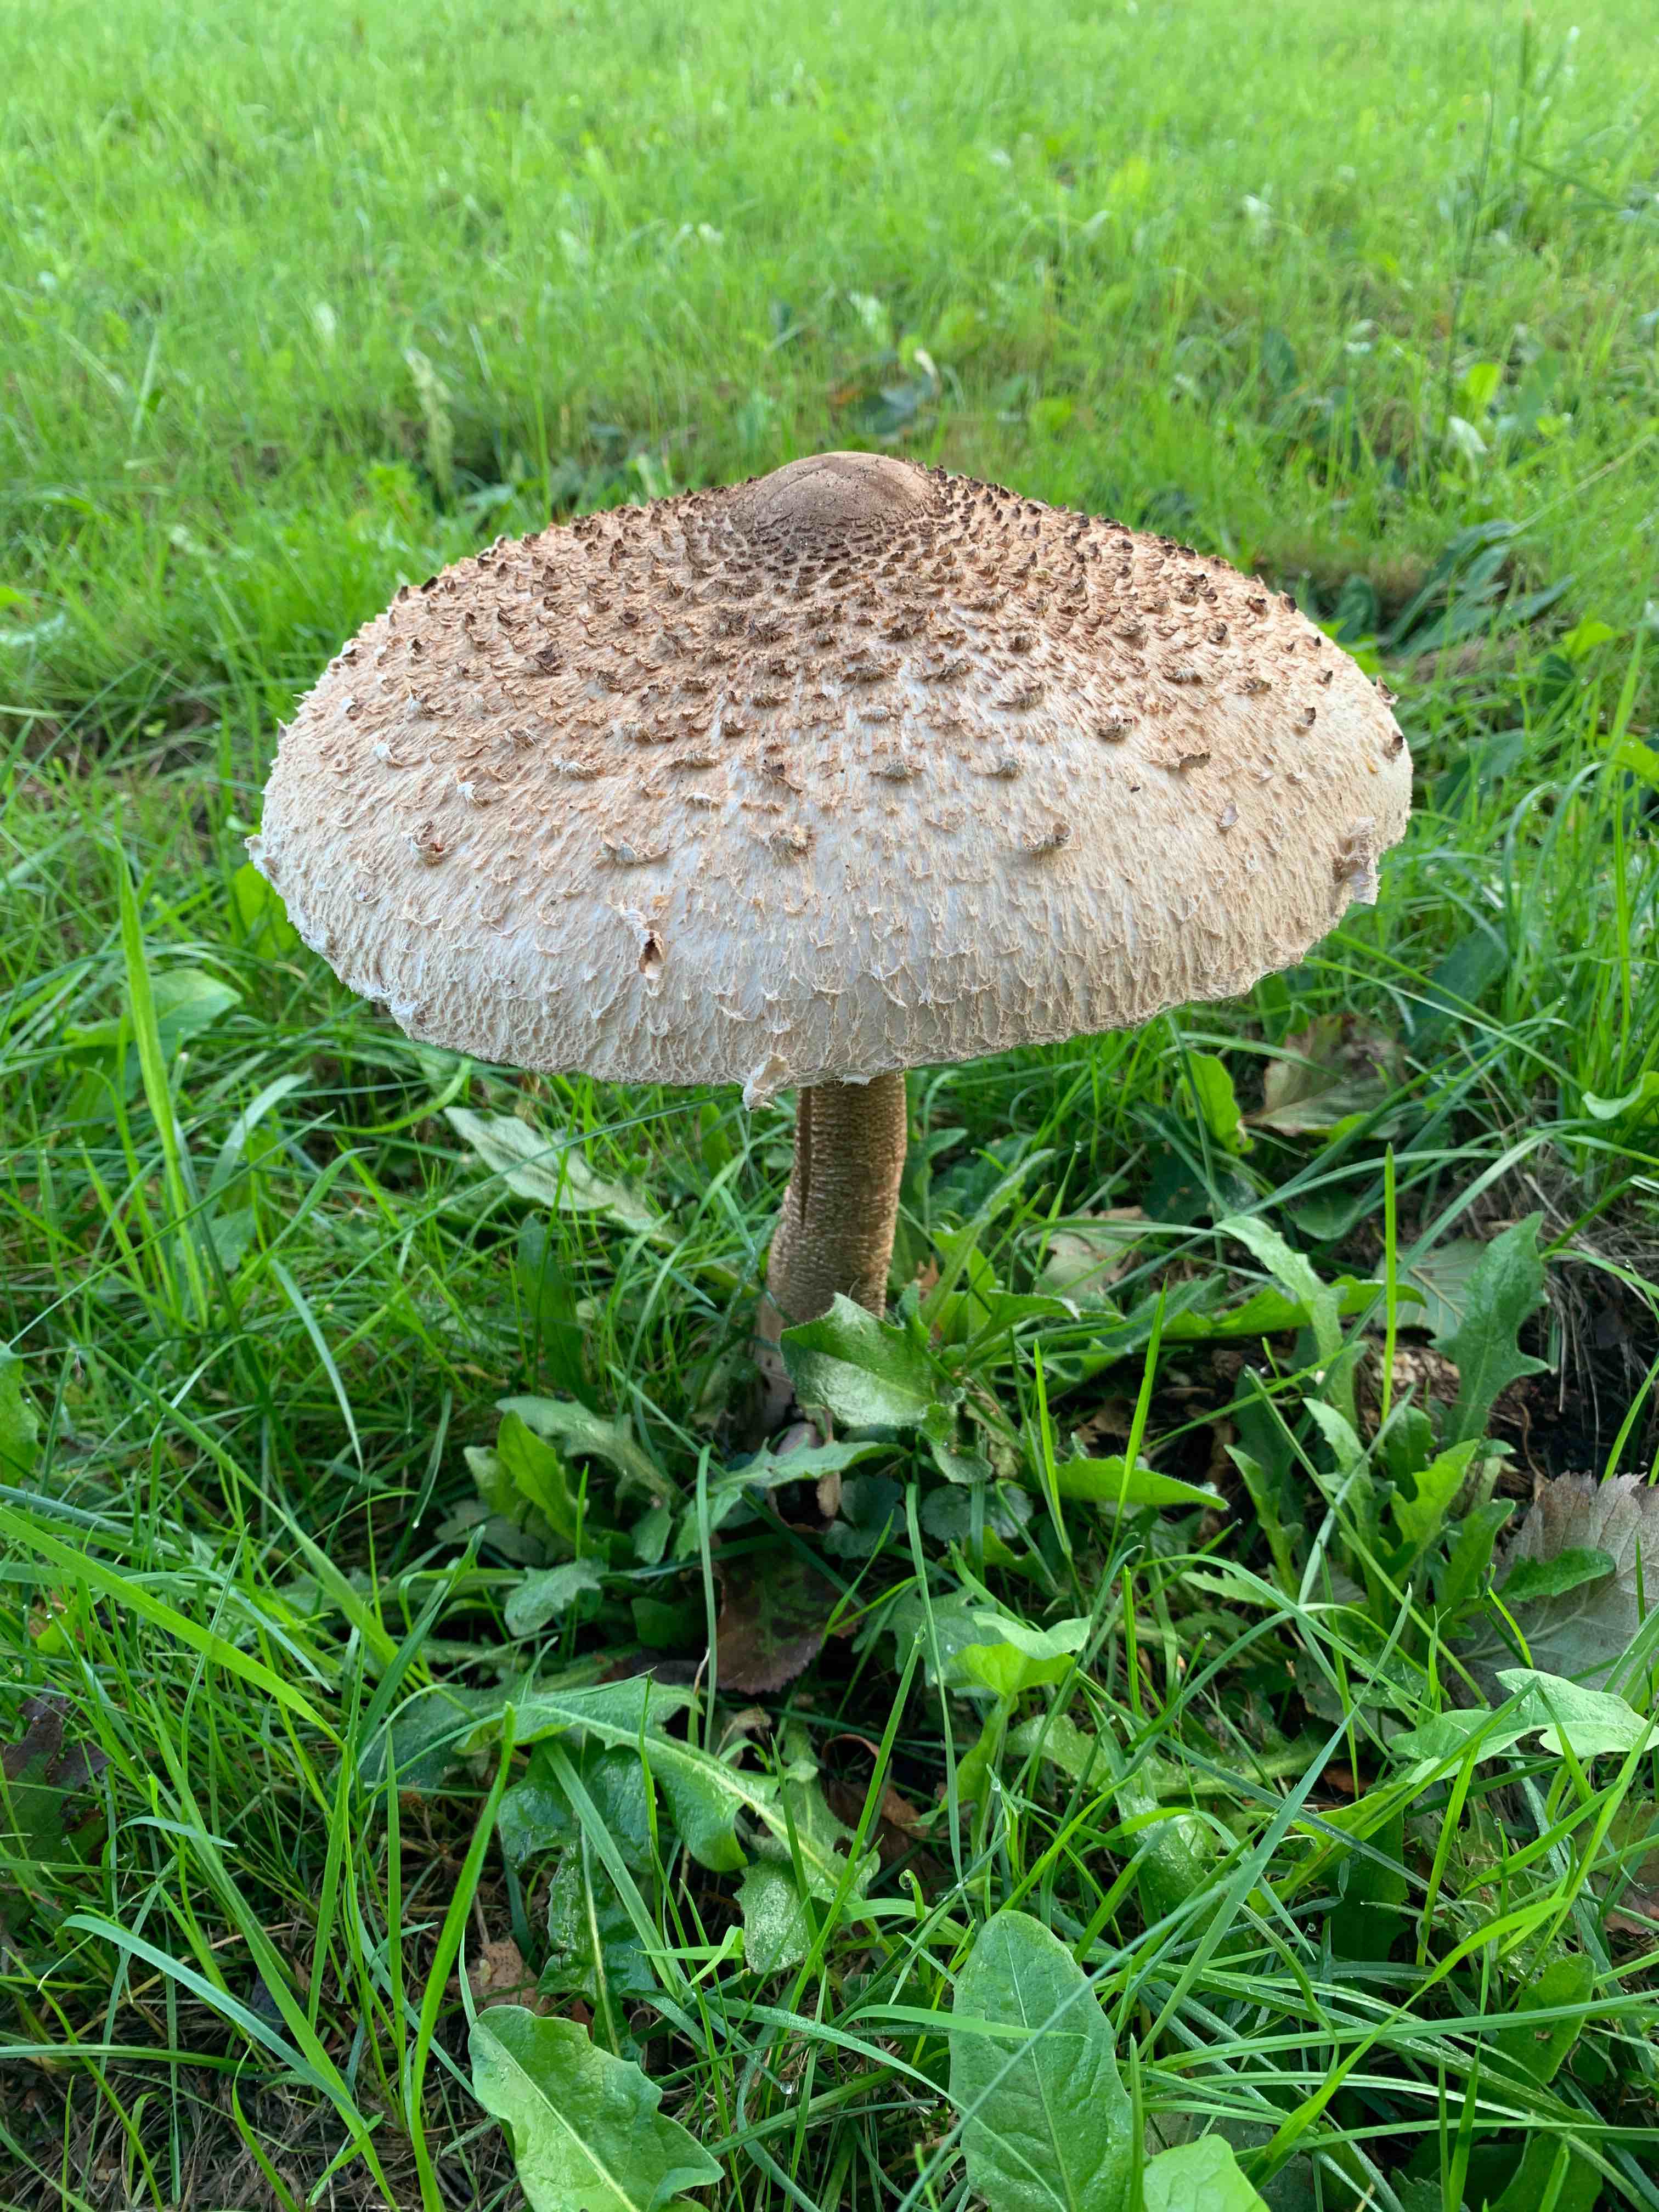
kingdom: Fungi
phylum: Basidiomycota
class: Agaricomycetes
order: Agaricales
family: Agaricaceae
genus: Macrolepiota
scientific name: Macrolepiota procera
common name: stor kæmpeparasolhat
